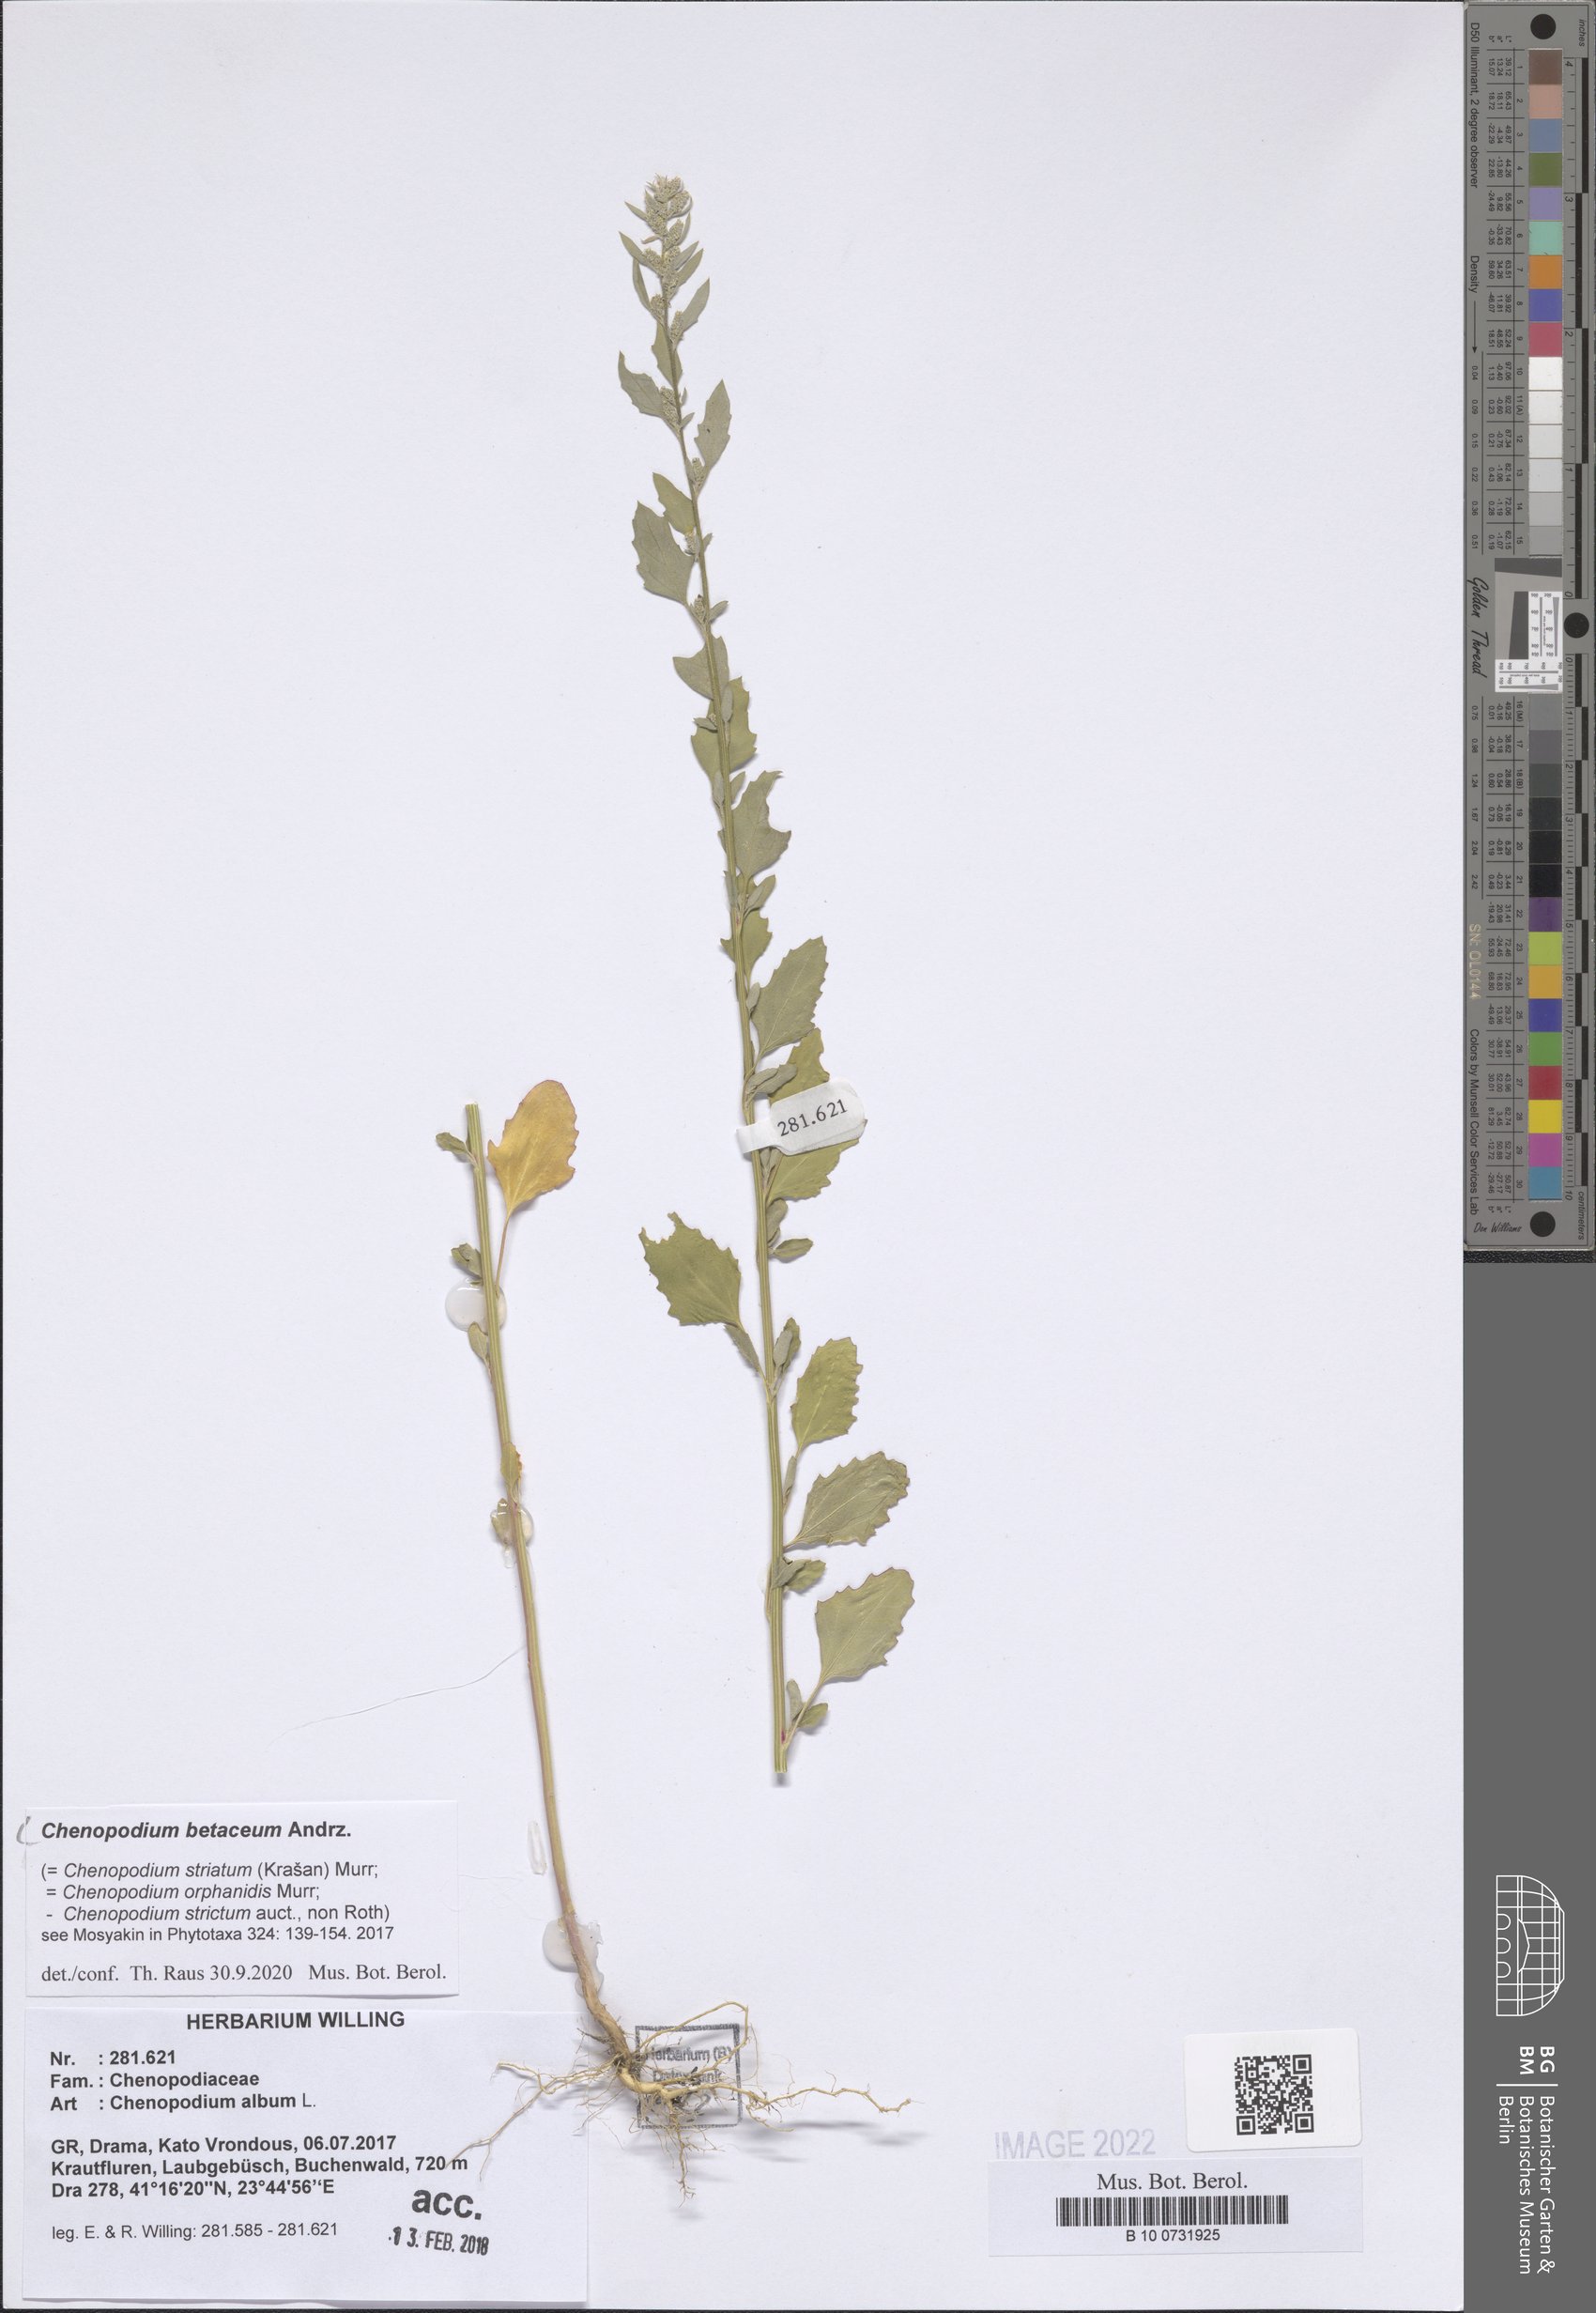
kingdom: Plantae
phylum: Tracheophyta
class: Magnoliopsida
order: Caryophyllales
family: Amaranthaceae
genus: Chenopodium
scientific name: Chenopodium betaceum
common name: Striped goosefoot
